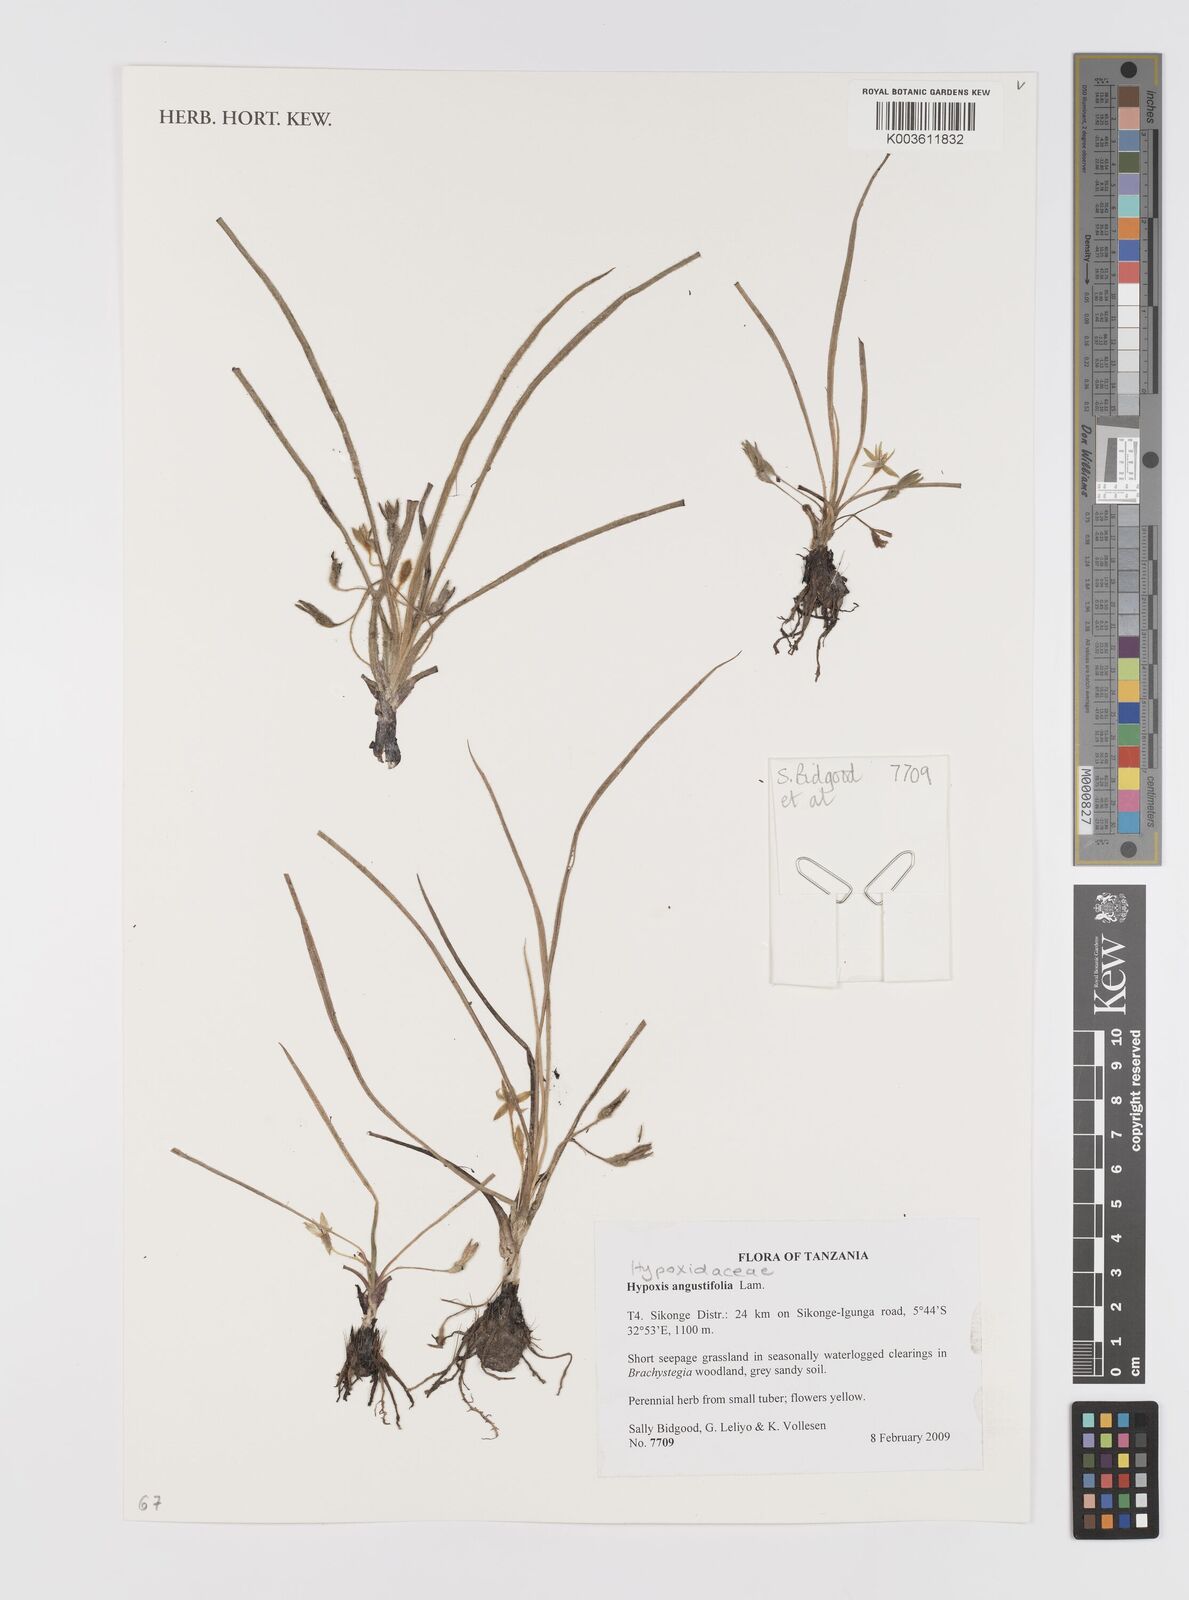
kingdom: Plantae
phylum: Tracheophyta
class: Liliopsida
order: Asparagales
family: Hypoxidaceae
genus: Hypoxis
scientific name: Hypoxis angustifolia
